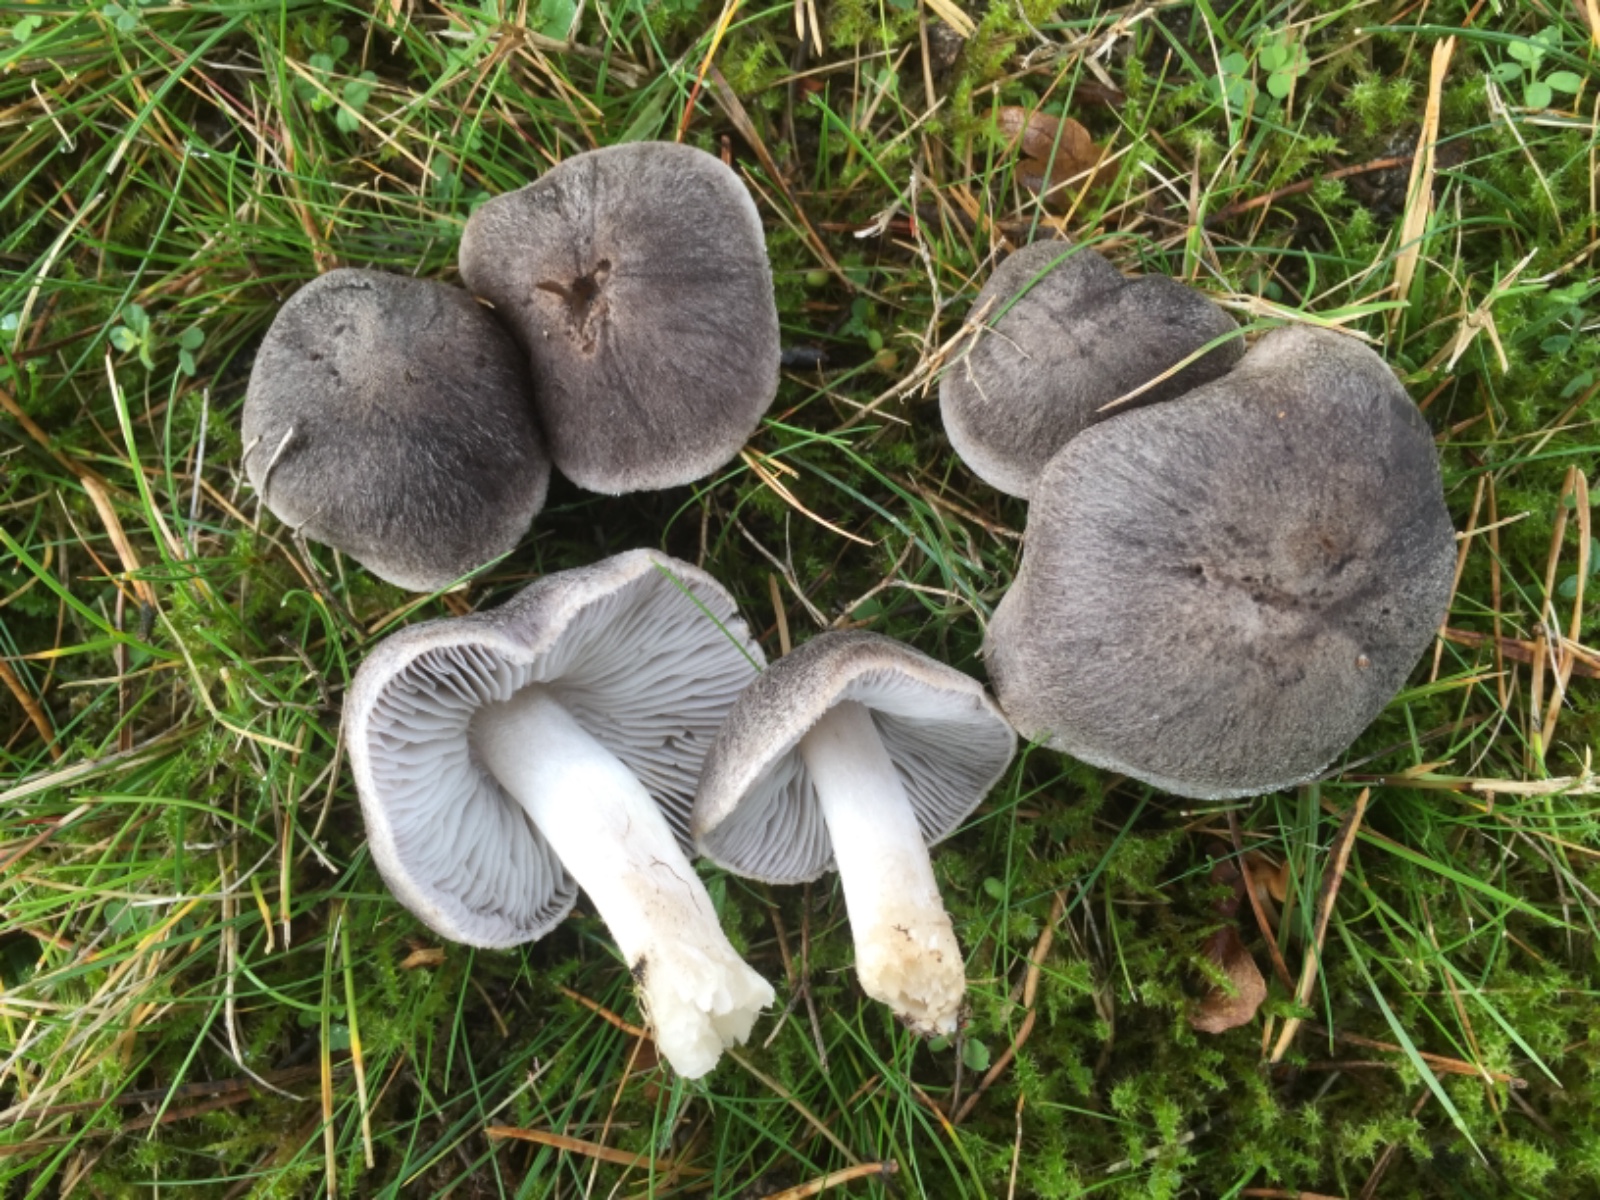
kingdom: Fungi
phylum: Basidiomycota
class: Agaricomycetes
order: Agaricales
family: Tricholomataceae
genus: Tricholoma
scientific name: Tricholoma terreum
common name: jordfarvet ridderhat
